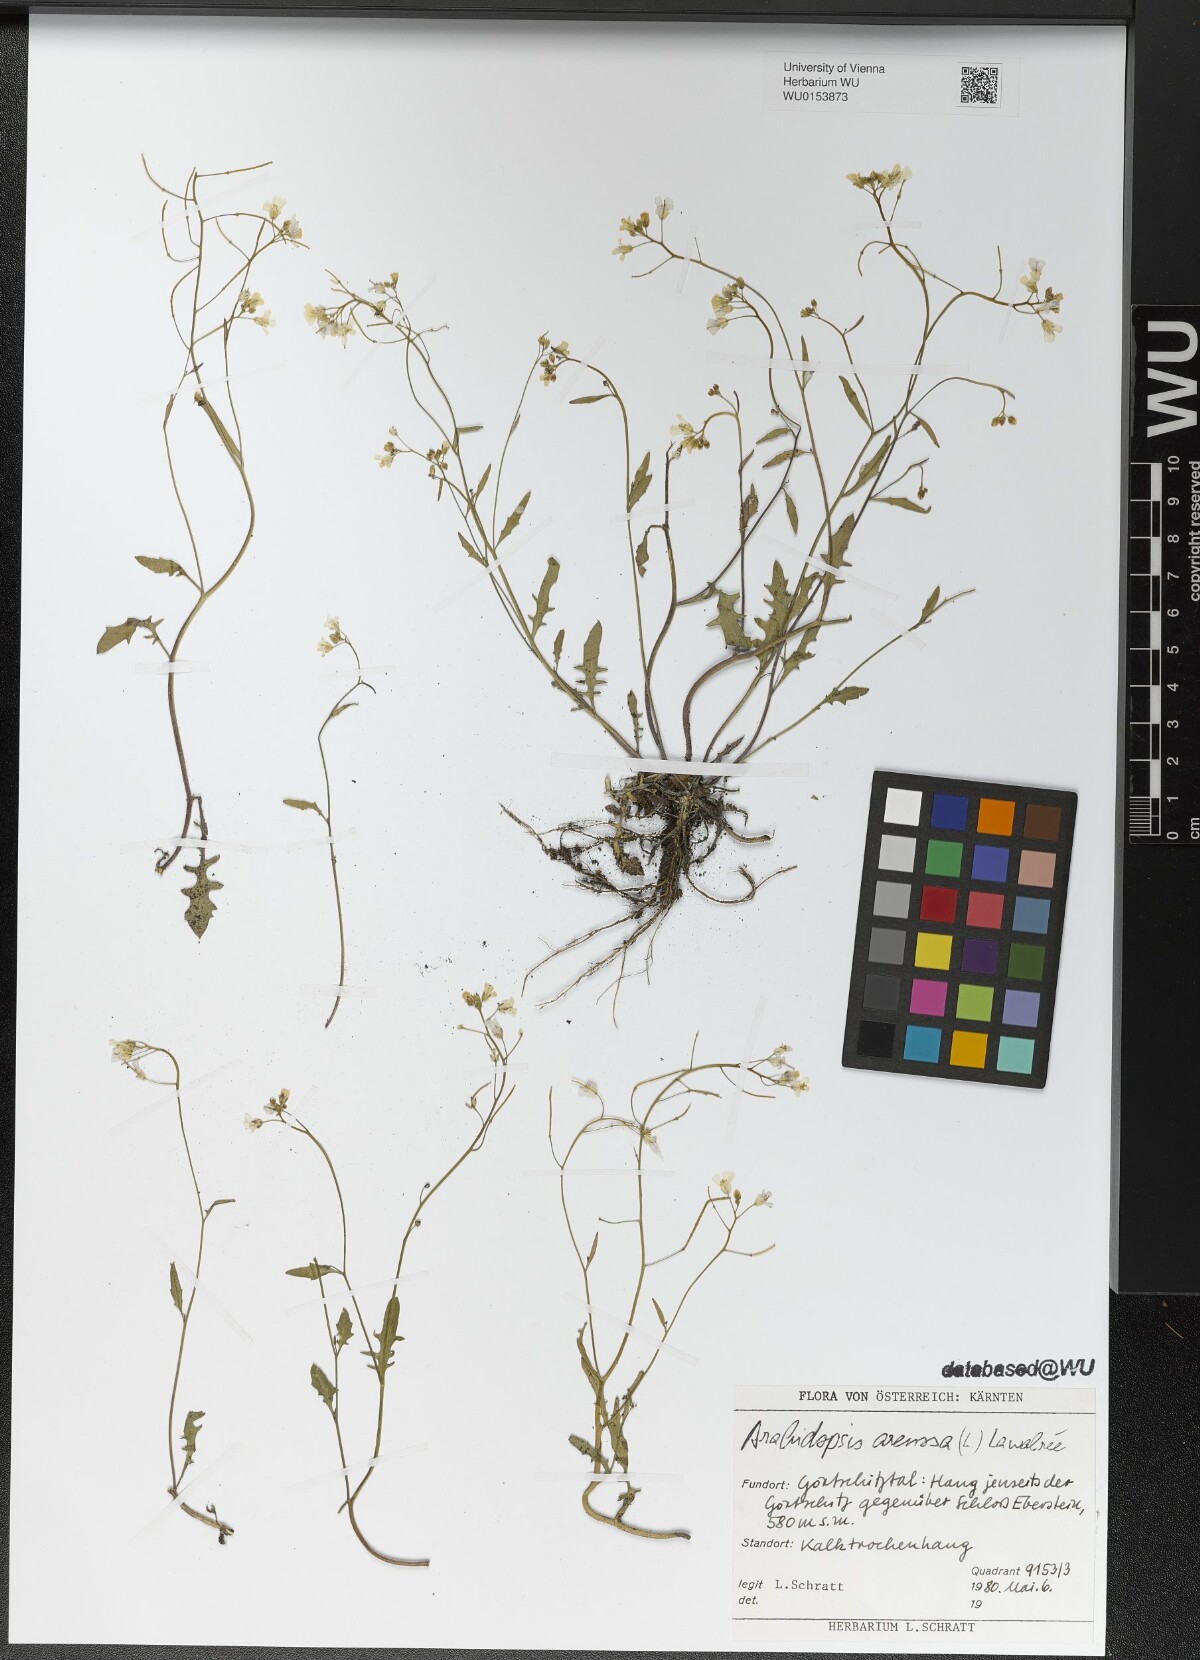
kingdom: Plantae
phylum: Tracheophyta
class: Magnoliopsida
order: Brassicales
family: Brassicaceae
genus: Arabidopsis
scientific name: Arabidopsis arenosa
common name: Sand rock-cress
